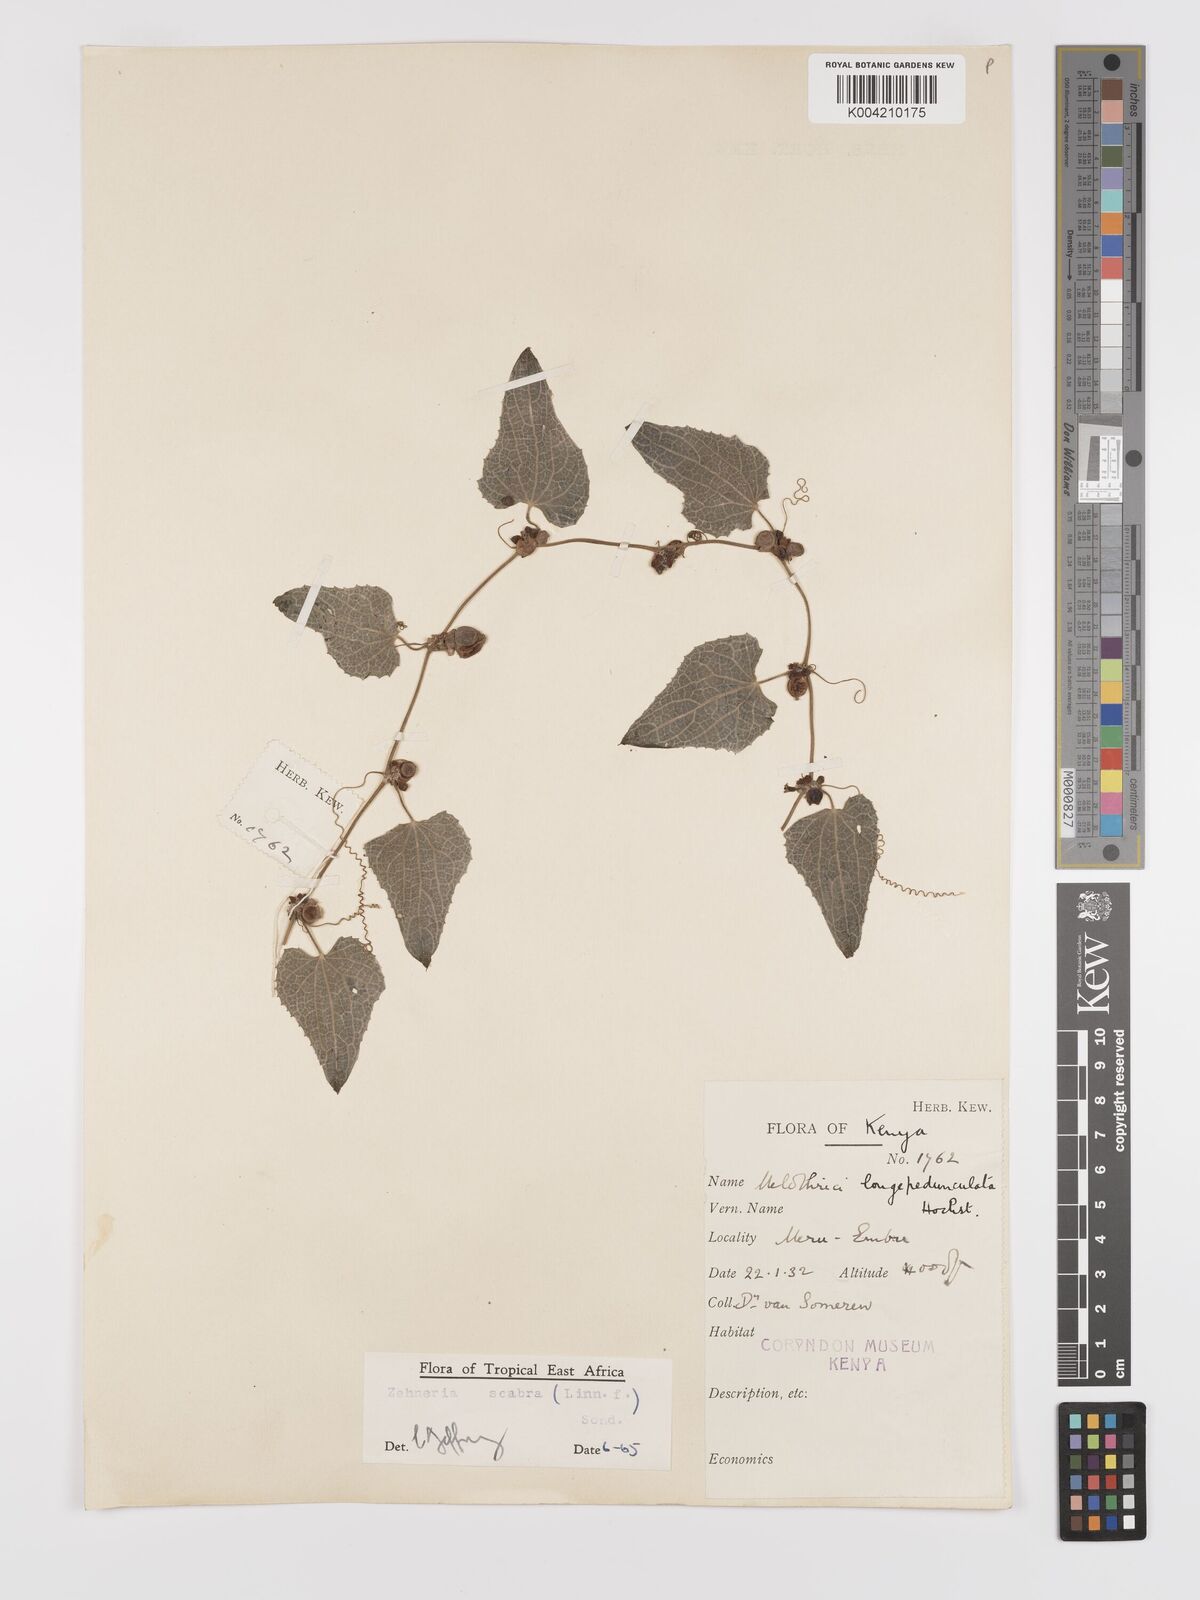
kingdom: Plantae
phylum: Tracheophyta
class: Magnoliopsida
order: Cucurbitales
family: Cucurbitaceae
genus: Zehneria
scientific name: Zehneria scabra
